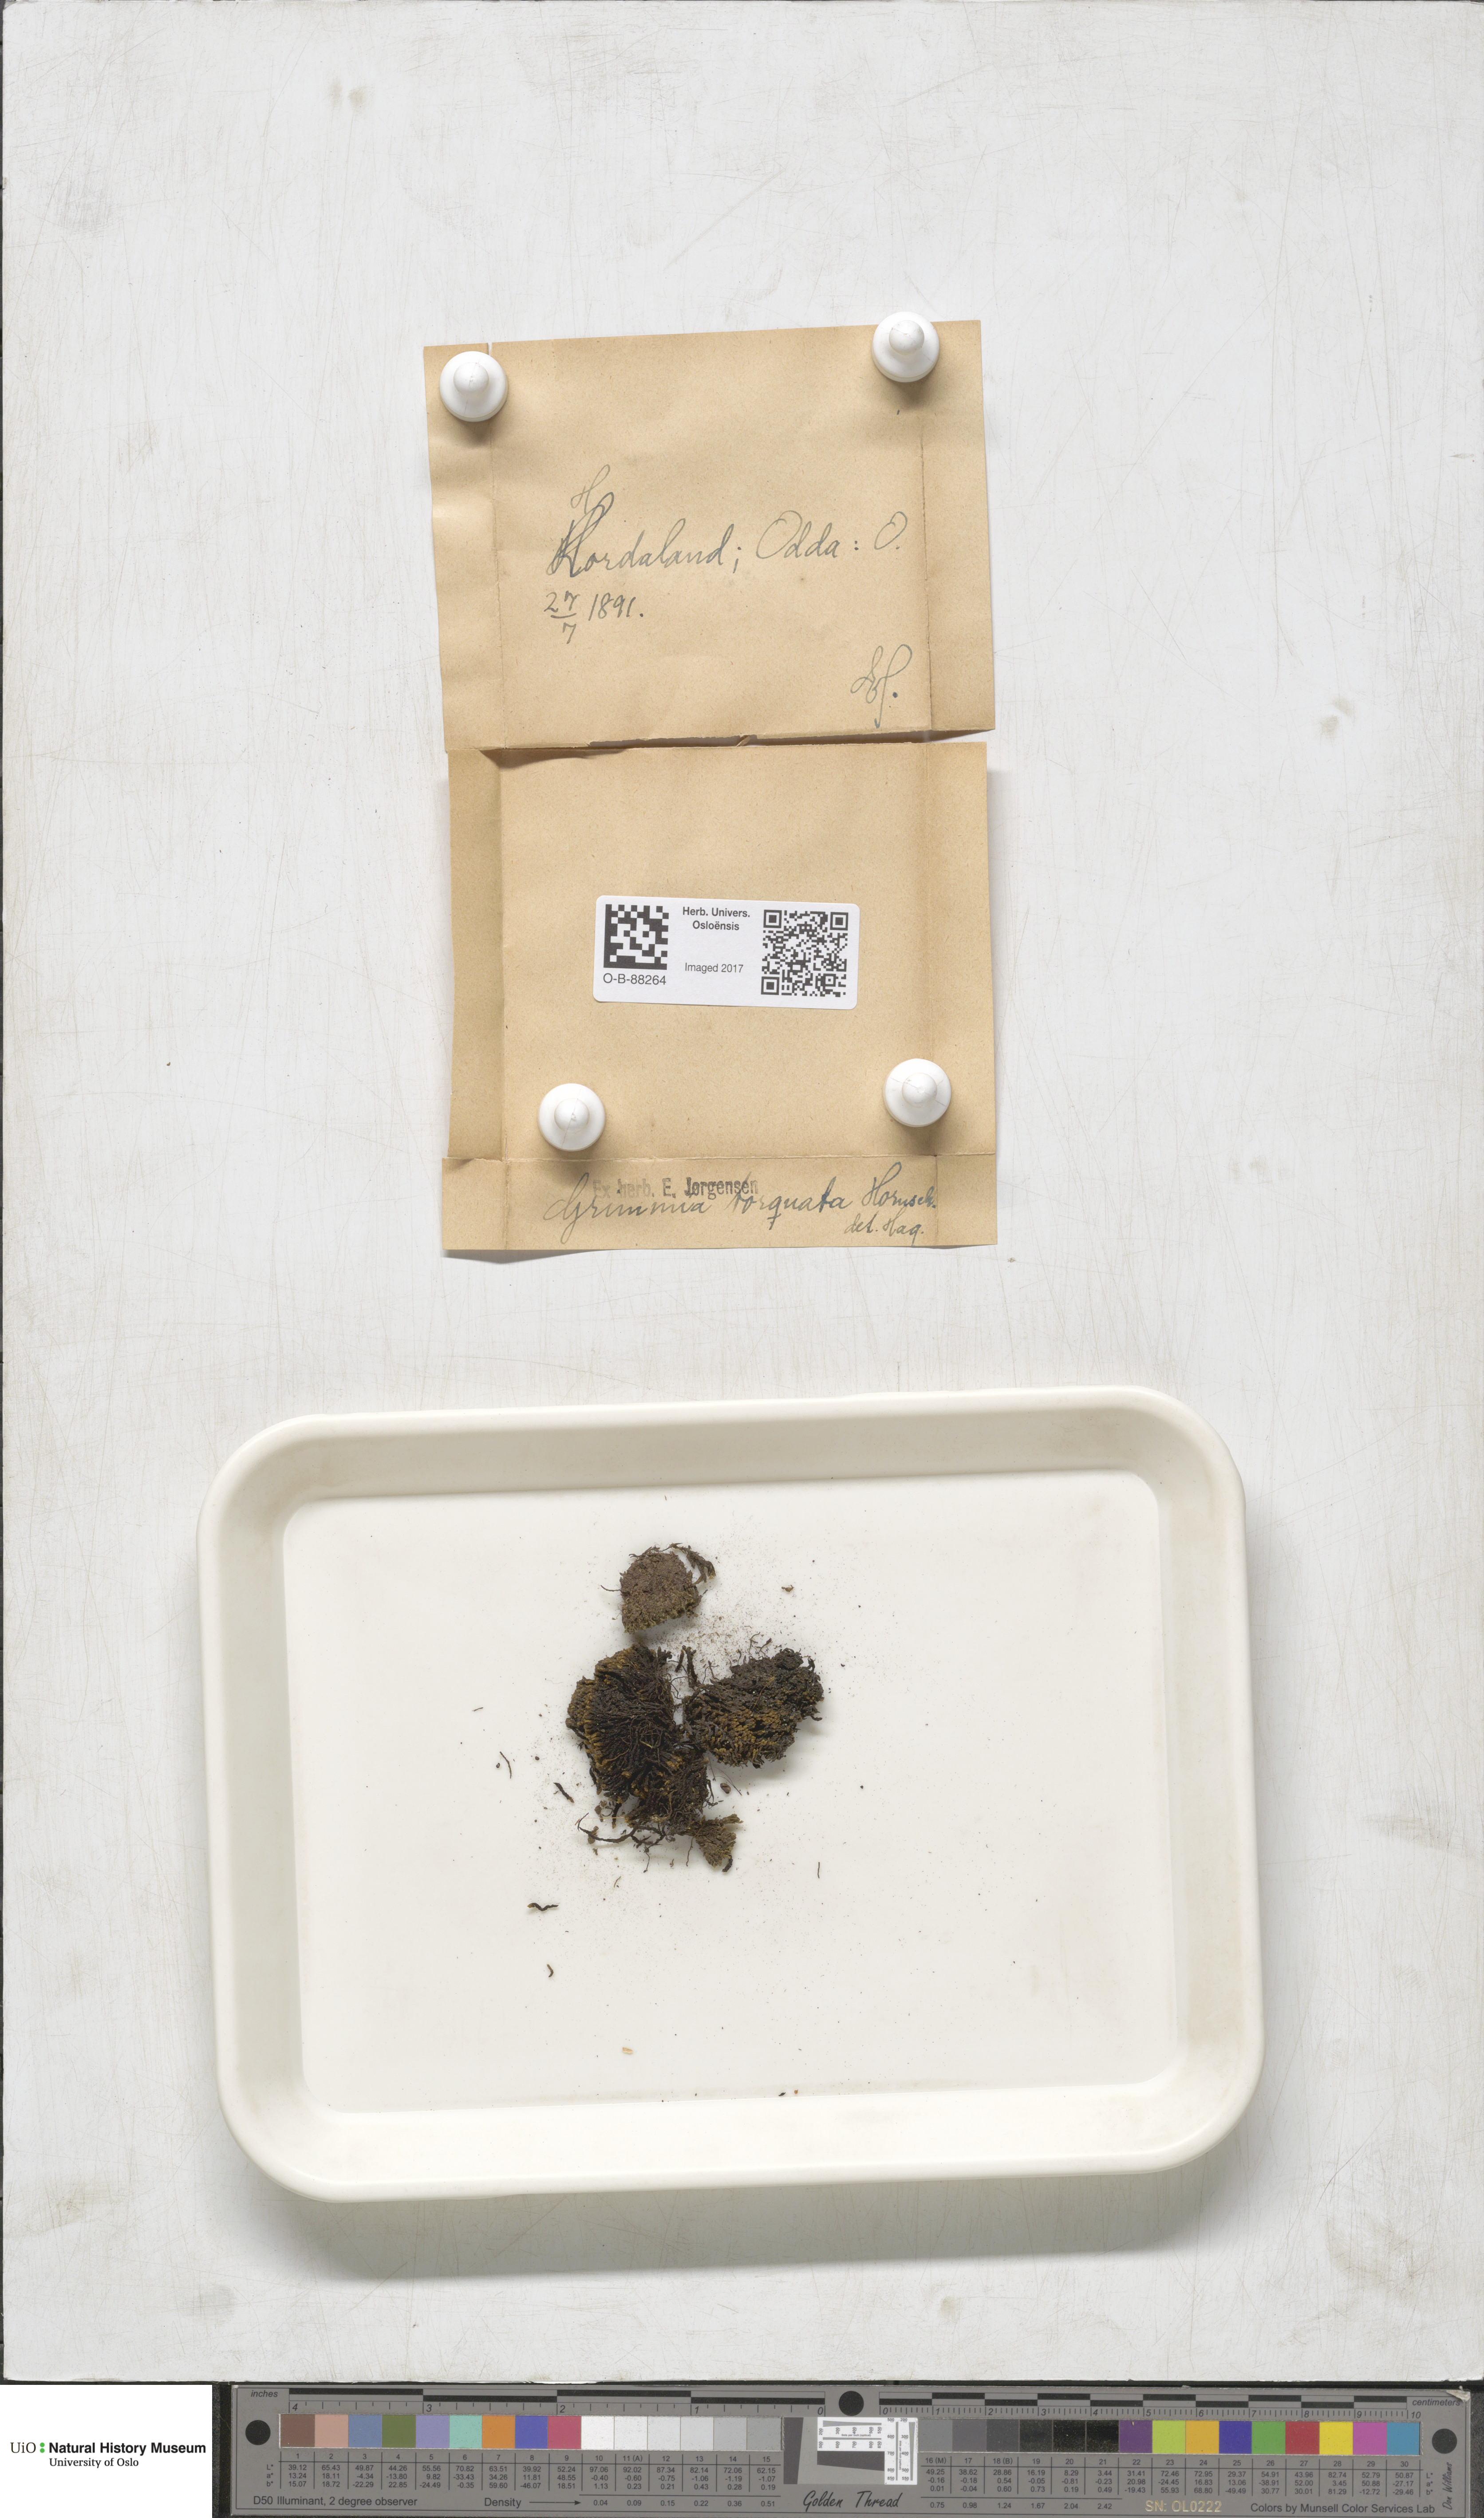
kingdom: Plantae
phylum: Bryophyta
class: Bryopsida
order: Grimmiales
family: Grimmiaceae
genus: Grimmia
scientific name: Grimmia torquata
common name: Twisted grimmia
